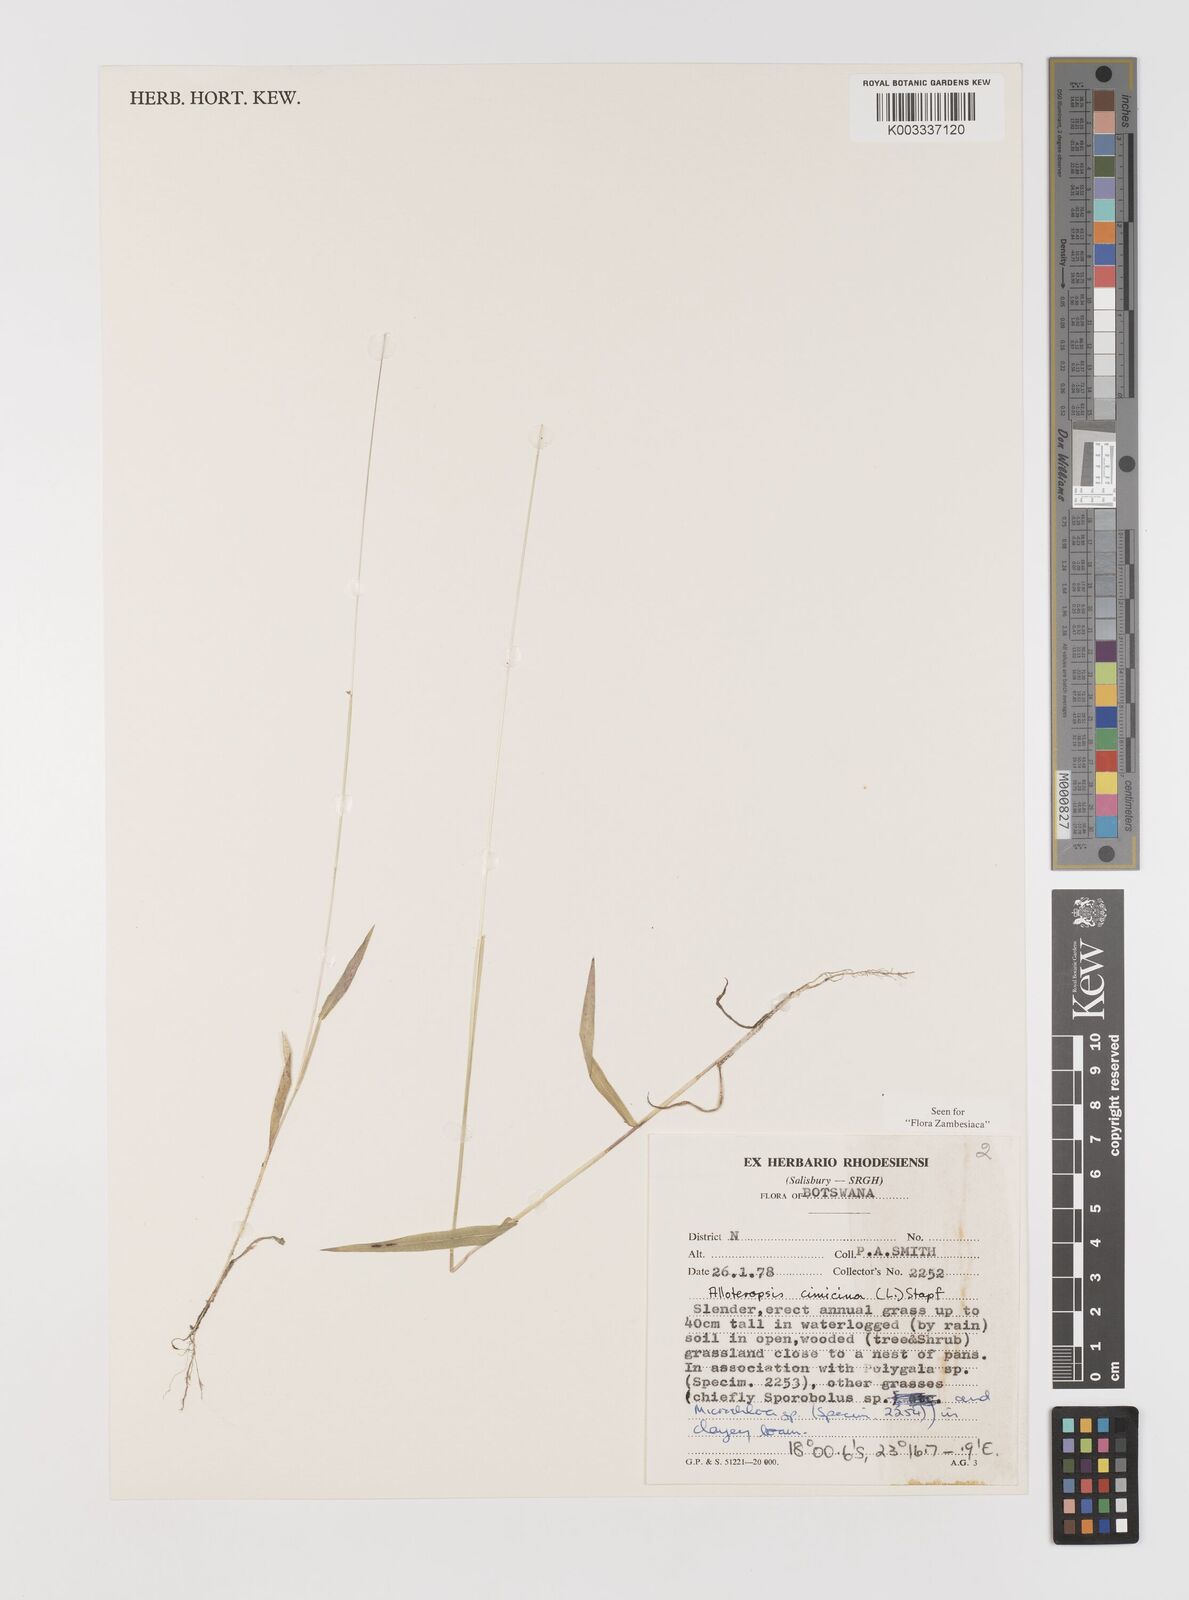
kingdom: Plantae
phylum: Tracheophyta
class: Liliopsida
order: Poales
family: Poaceae
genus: Alloteropsis
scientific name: Alloteropsis cimicina
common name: Summergrass
